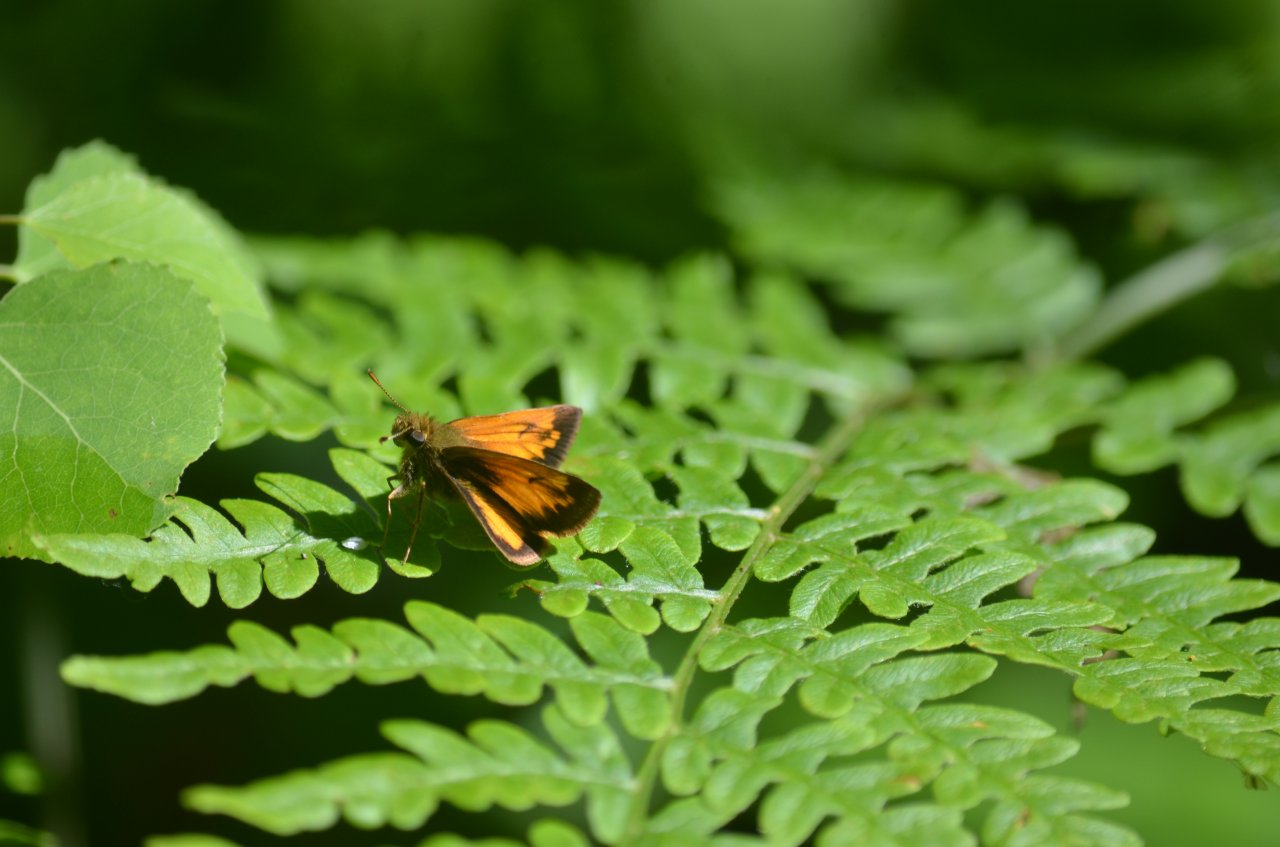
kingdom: Animalia
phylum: Arthropoda
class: Insecta
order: Lepidoptera
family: Hesperiidae
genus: Lon
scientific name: Lon hobomok
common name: Hobomok Skipper
